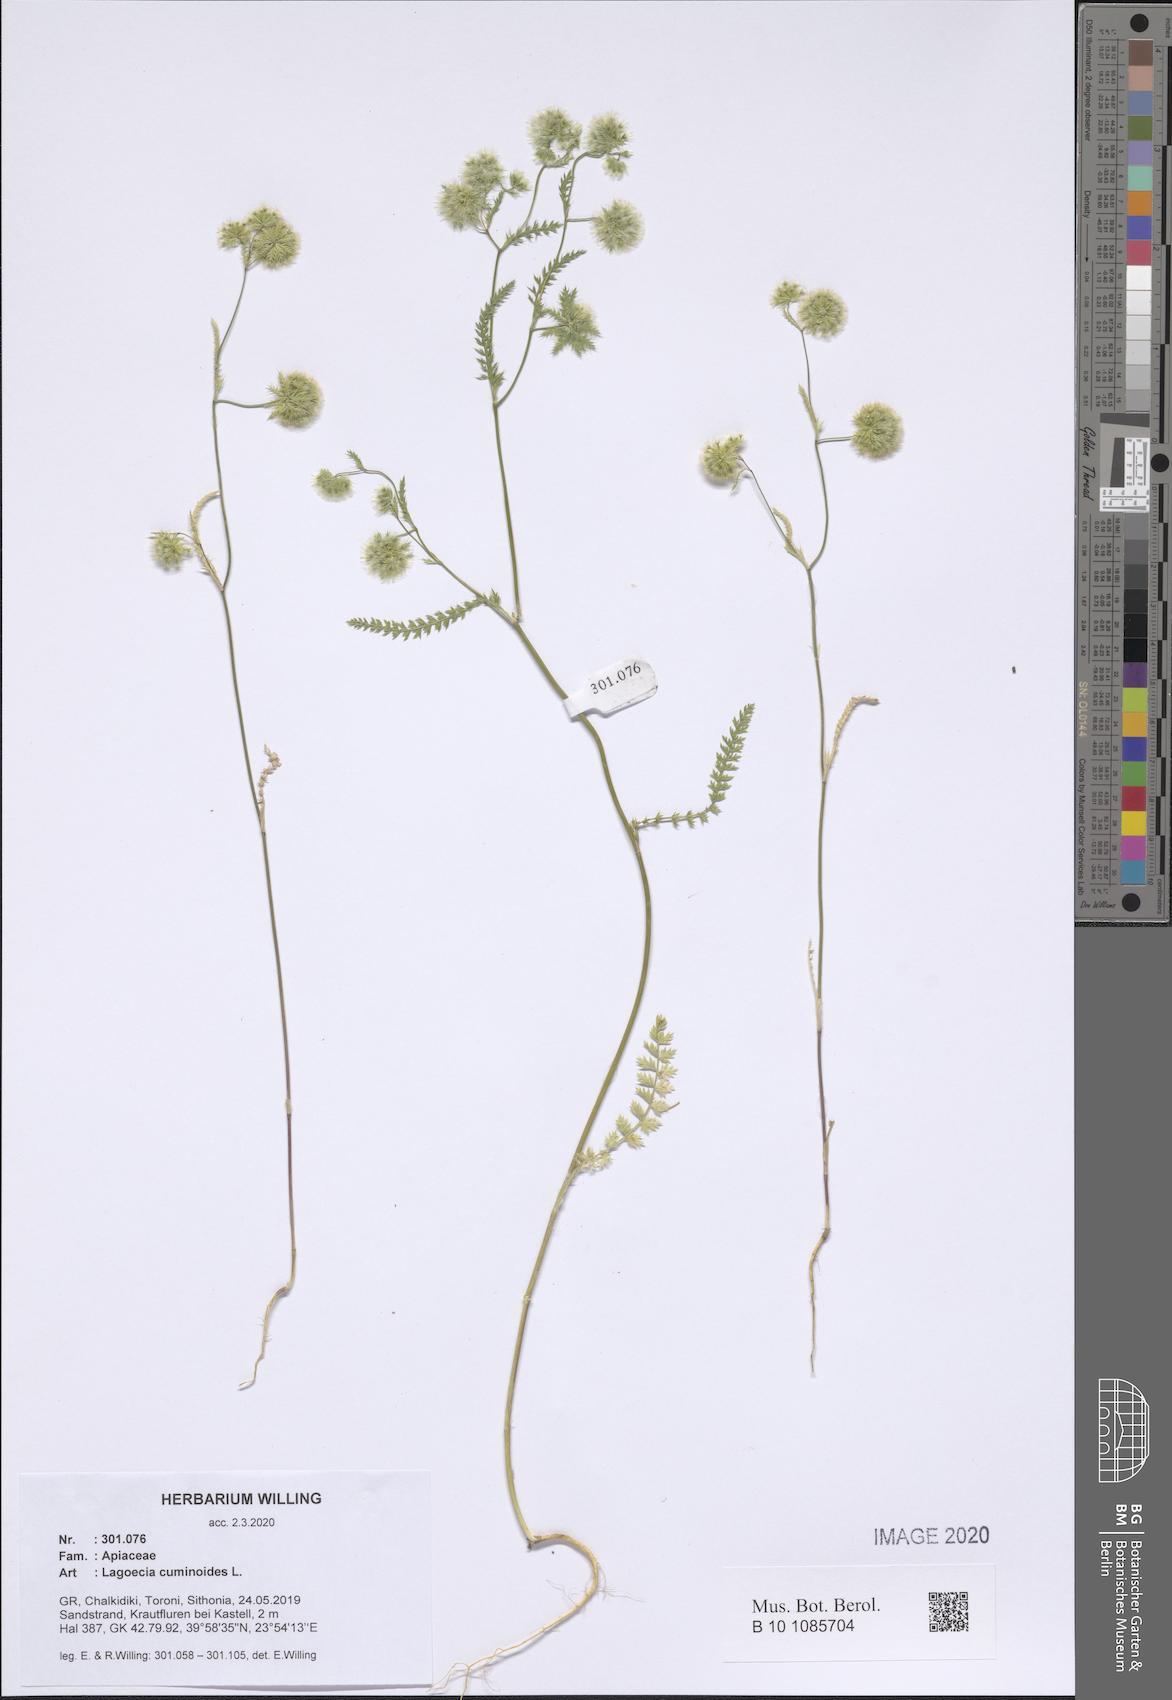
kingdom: Plantae
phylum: Tracheophyta
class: Magnoliopsida
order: Apiales
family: Apiaceae
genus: Lagoecia
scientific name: Lagoecia cuminoides
